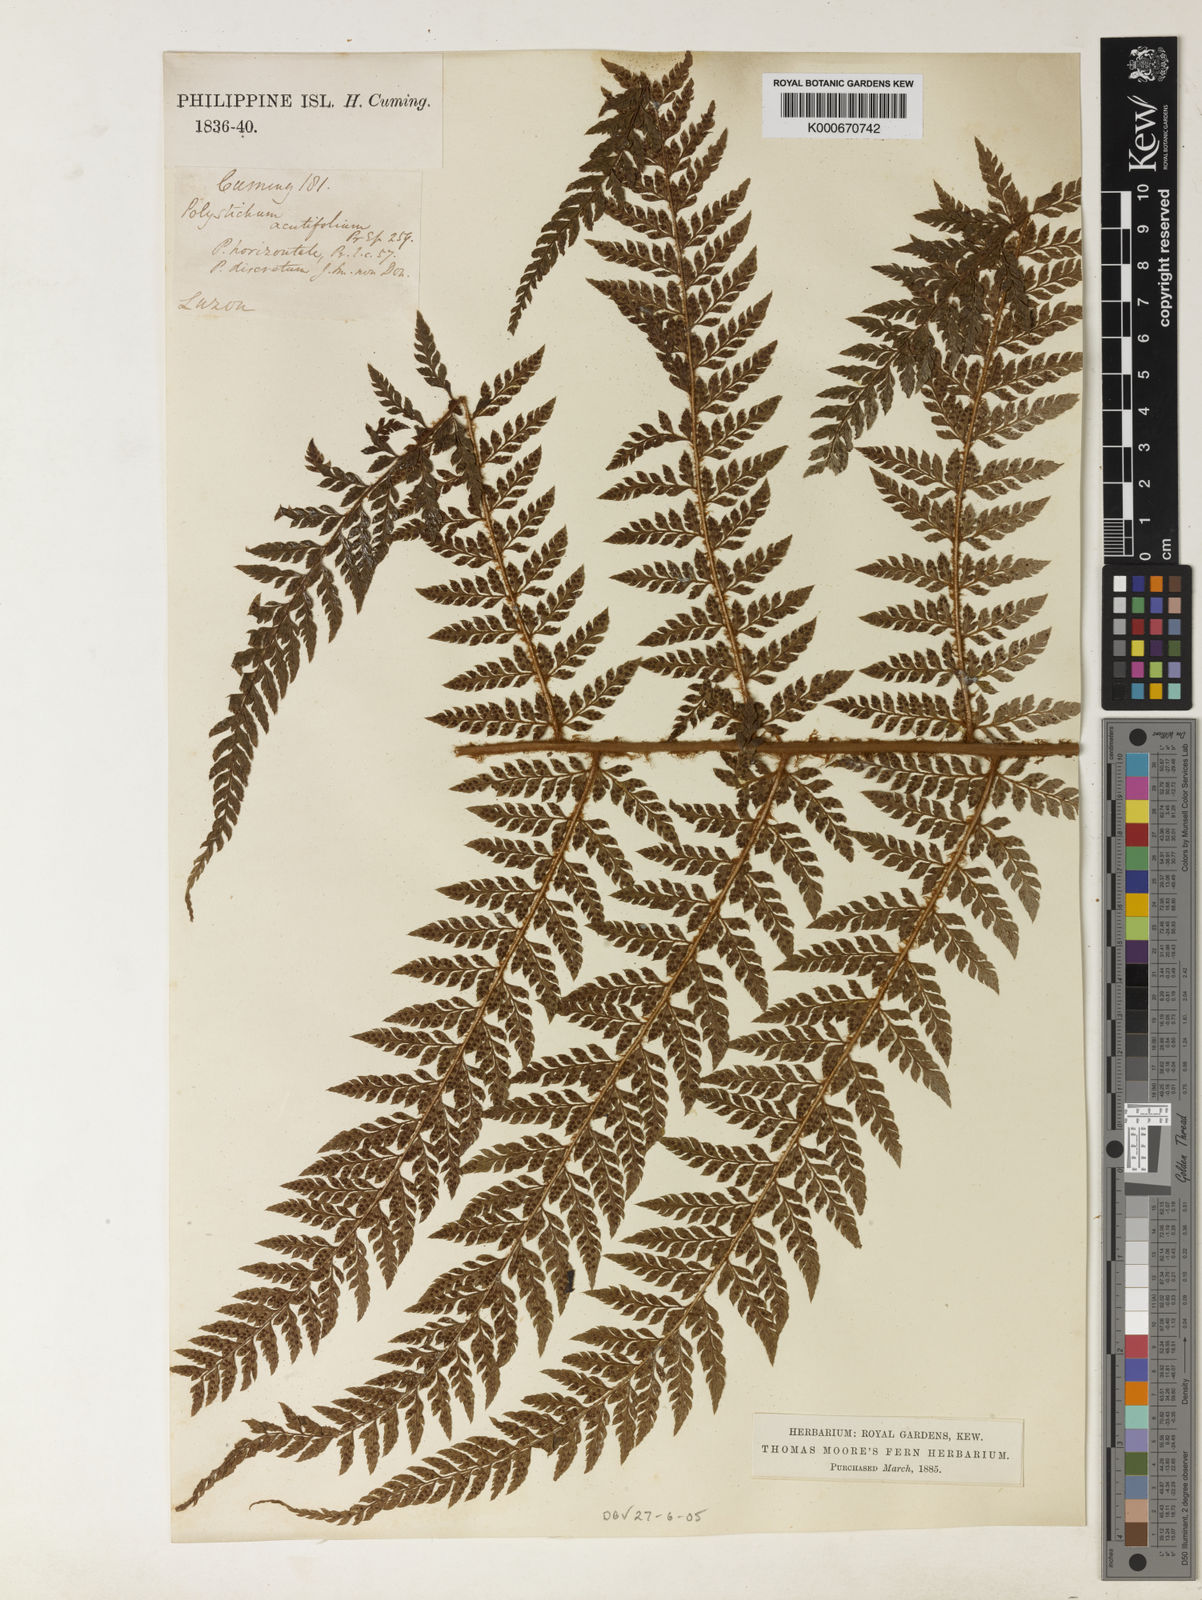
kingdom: Plantae
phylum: Tracheophyta
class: Polypodiopsida
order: Polypodiales
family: Dryopteridaceae
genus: Polystichum
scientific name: Polystichum moluccense
